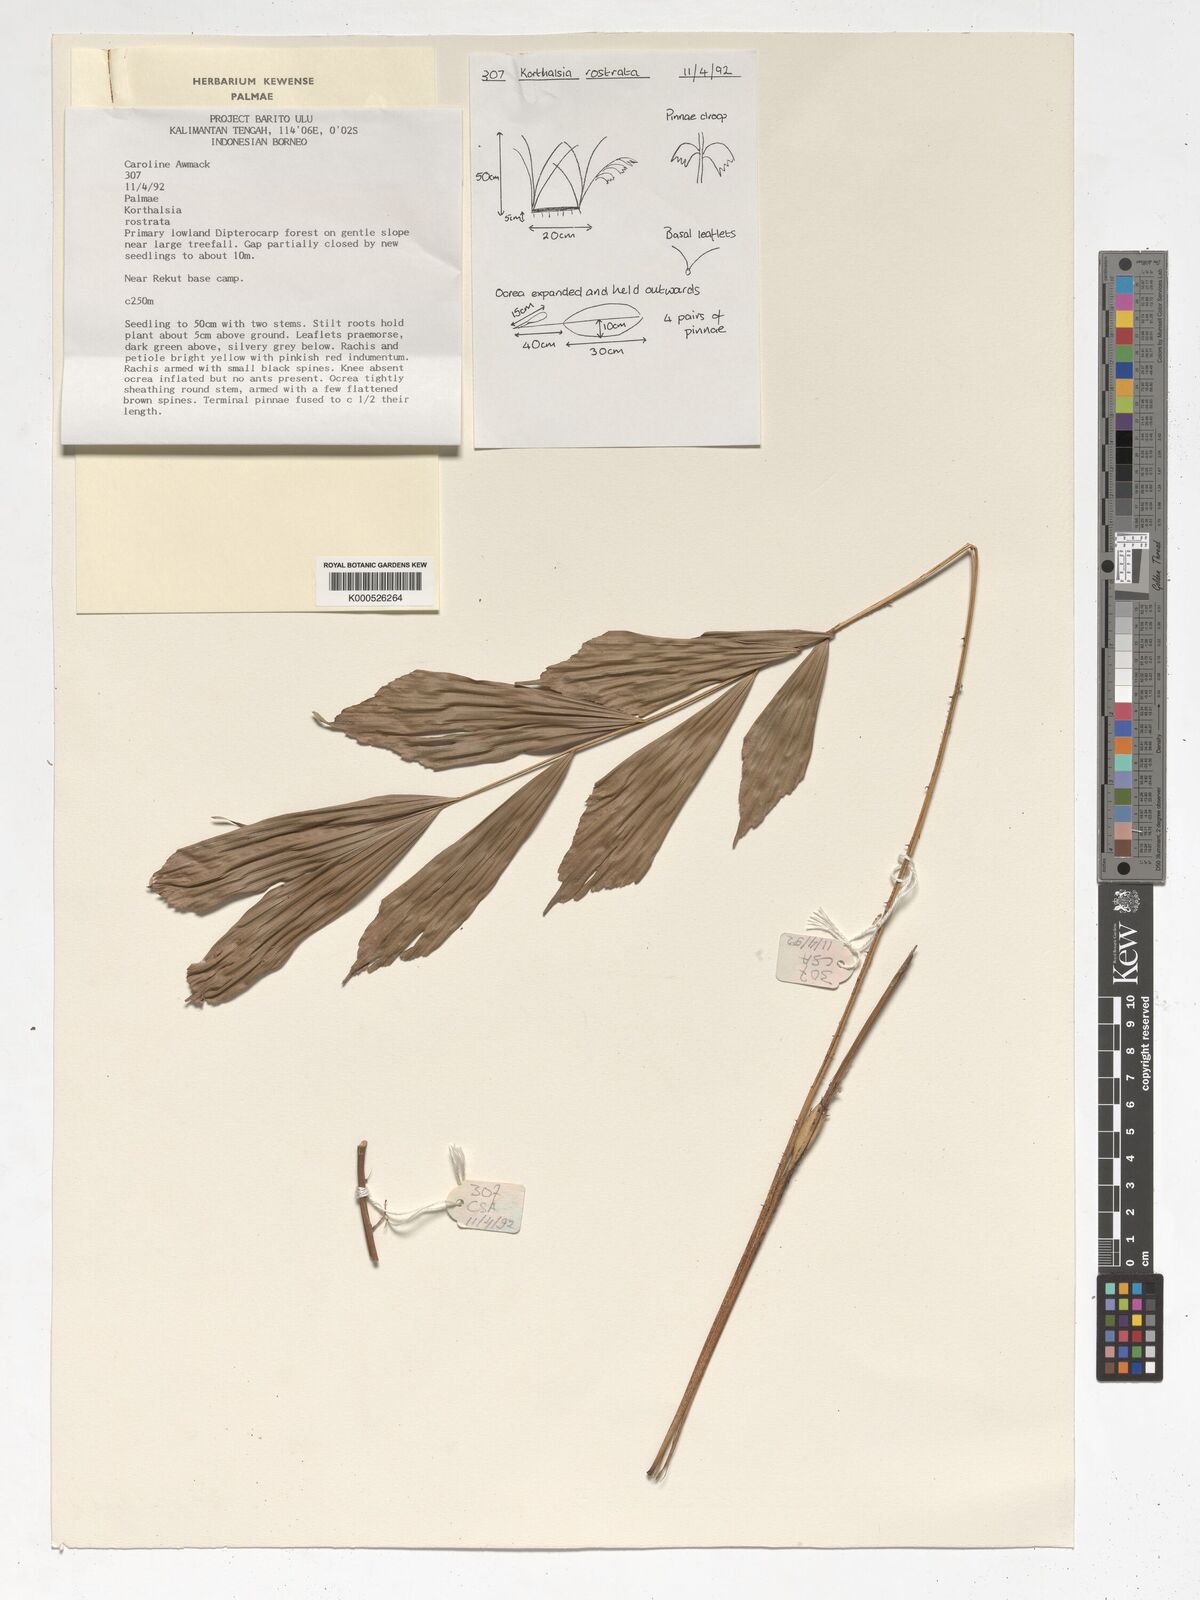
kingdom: Plantae
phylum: Tracheophyta
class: Liliopsida
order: Arecales
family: Arecaceae
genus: Korthalsia
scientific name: Korthalsia rostrata
